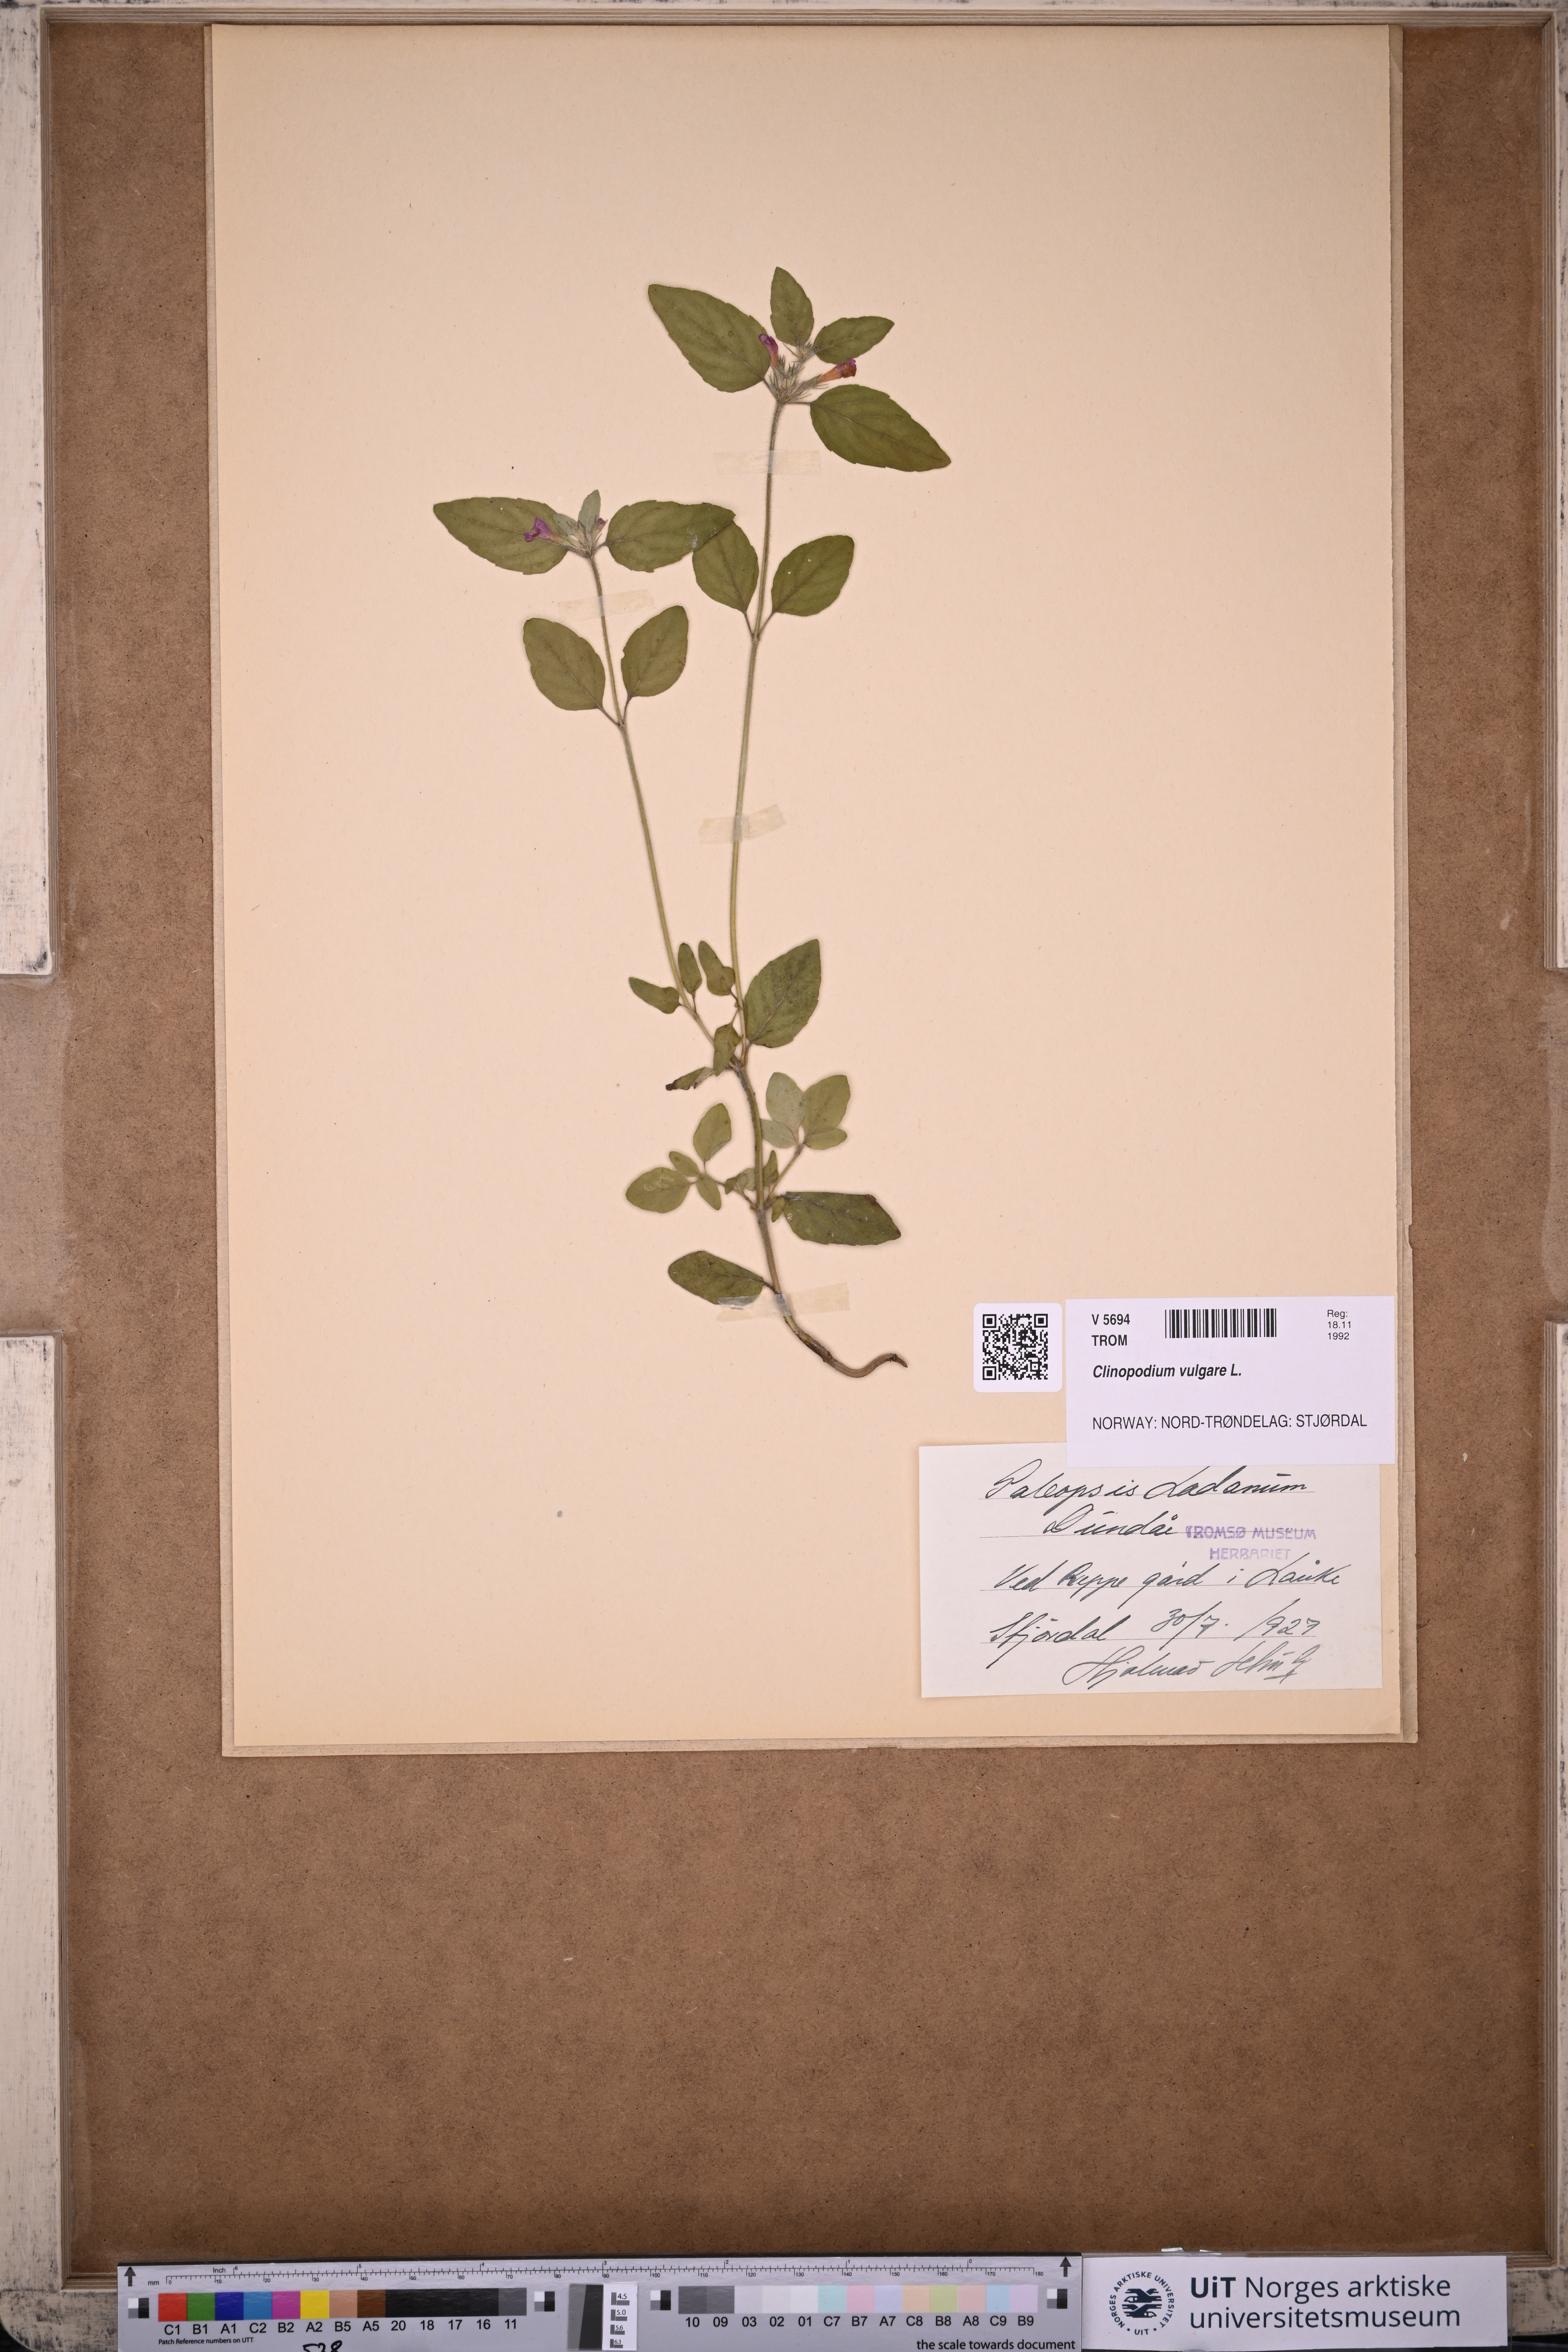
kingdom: Plantae
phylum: Tracheophyta
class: Magnoliopsida
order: Lamiales
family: Lamiaceae
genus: Clinopodium
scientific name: Clinopodium vulgare
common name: Wild basil
